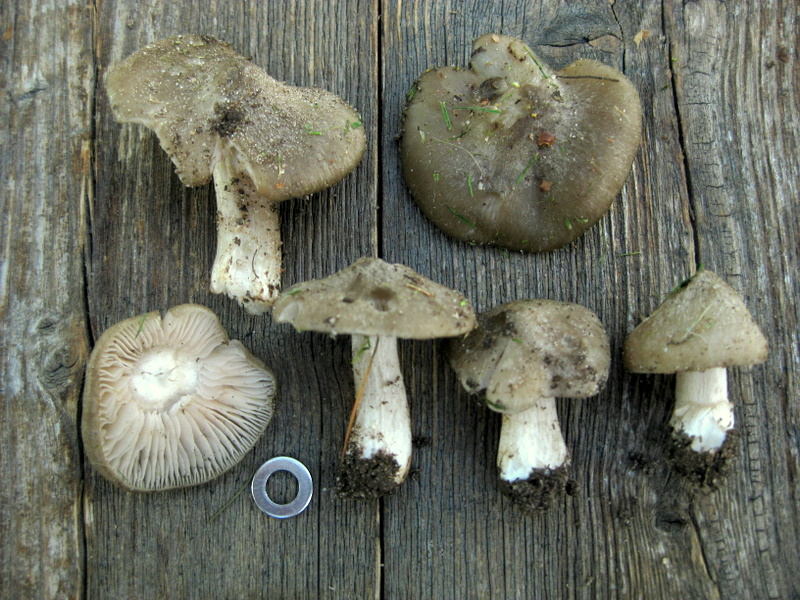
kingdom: Fungi
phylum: Basidiomycota
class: Agaricomycetes
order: Agaricales
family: Entolomataceae
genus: Entoloma
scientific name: Entoloma clypeatum
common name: flammet rødblad
